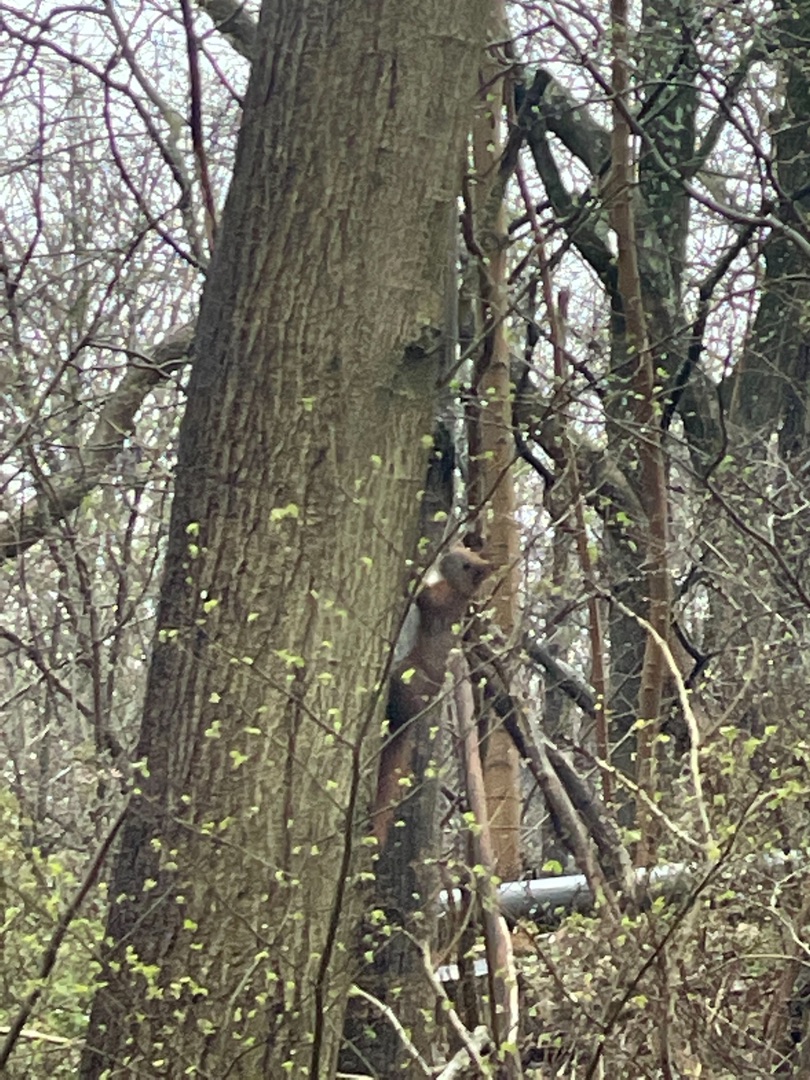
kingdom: Animalia
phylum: Chordata
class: Mammalia
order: Rodentia
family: Sciuridae
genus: Sciurus
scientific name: Sciurus vulgaris
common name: Egern
